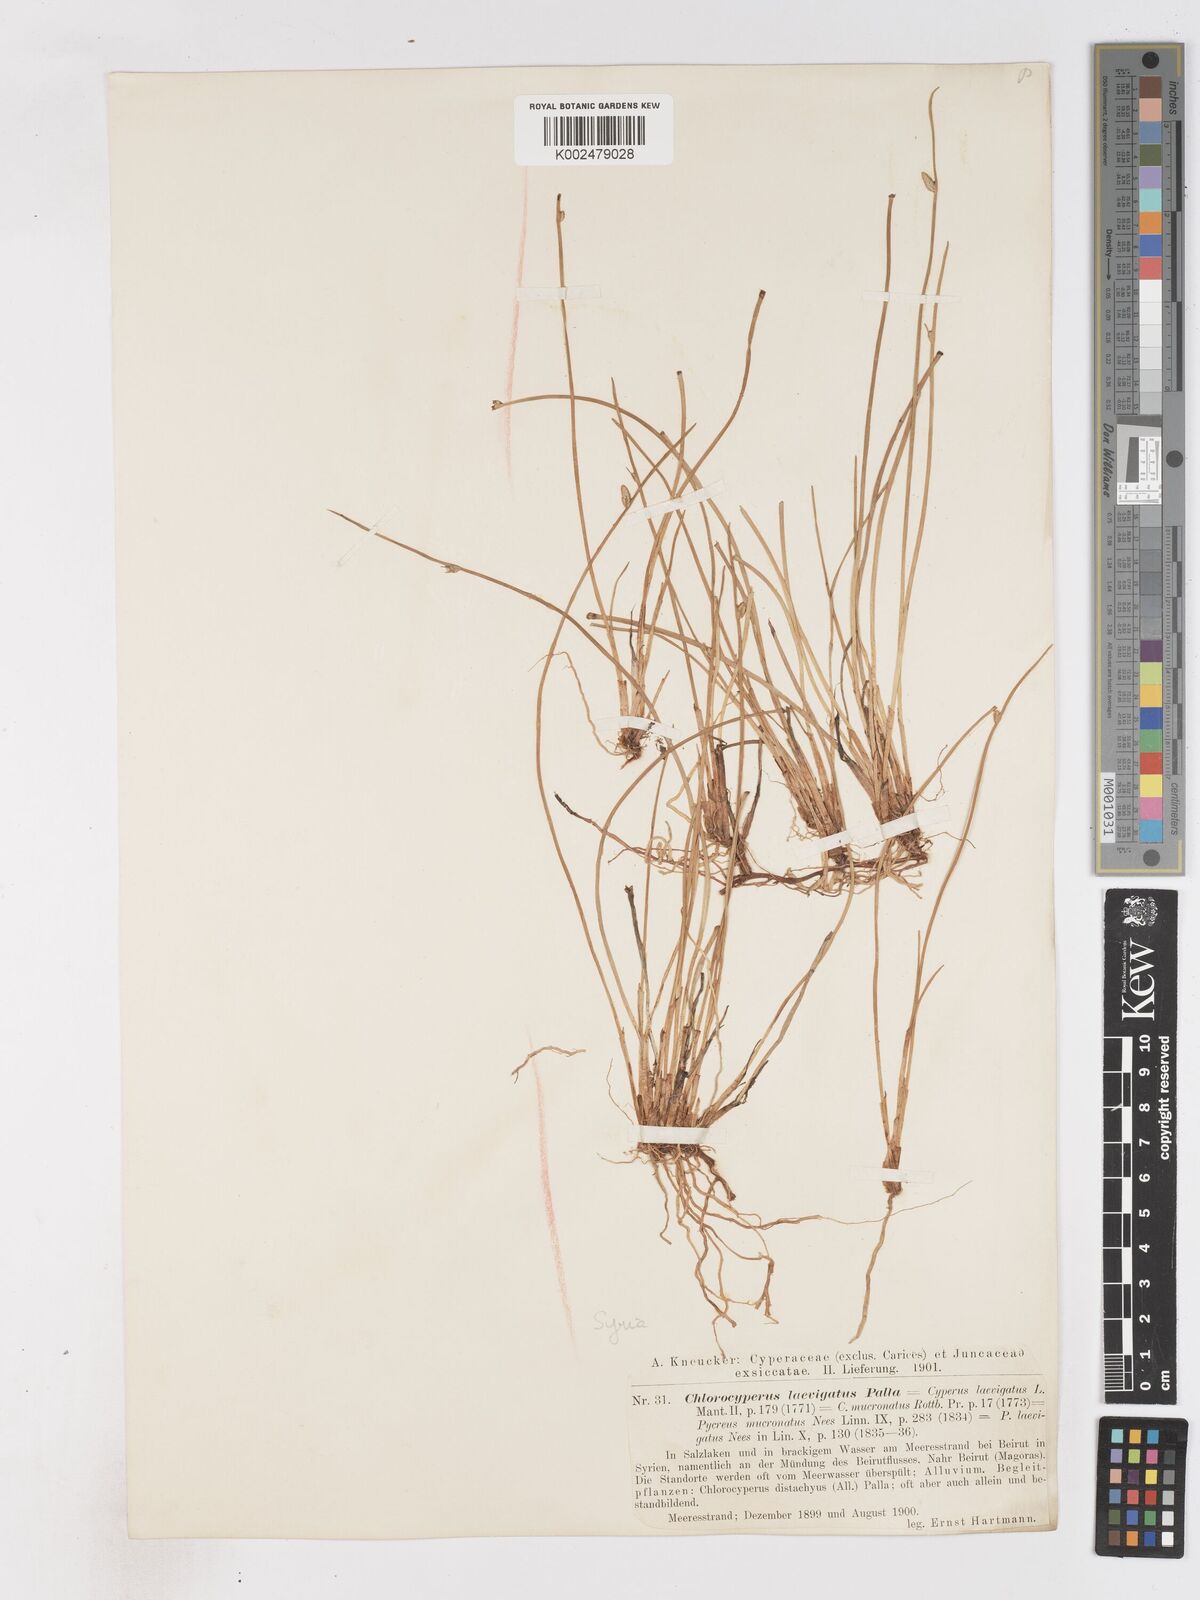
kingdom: Plantae
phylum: Tracheophyta
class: Liliopsida
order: Poales
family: Cyperaceae
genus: Cyperus
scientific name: Cyperus laevigatus
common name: Smooth flat sedge
